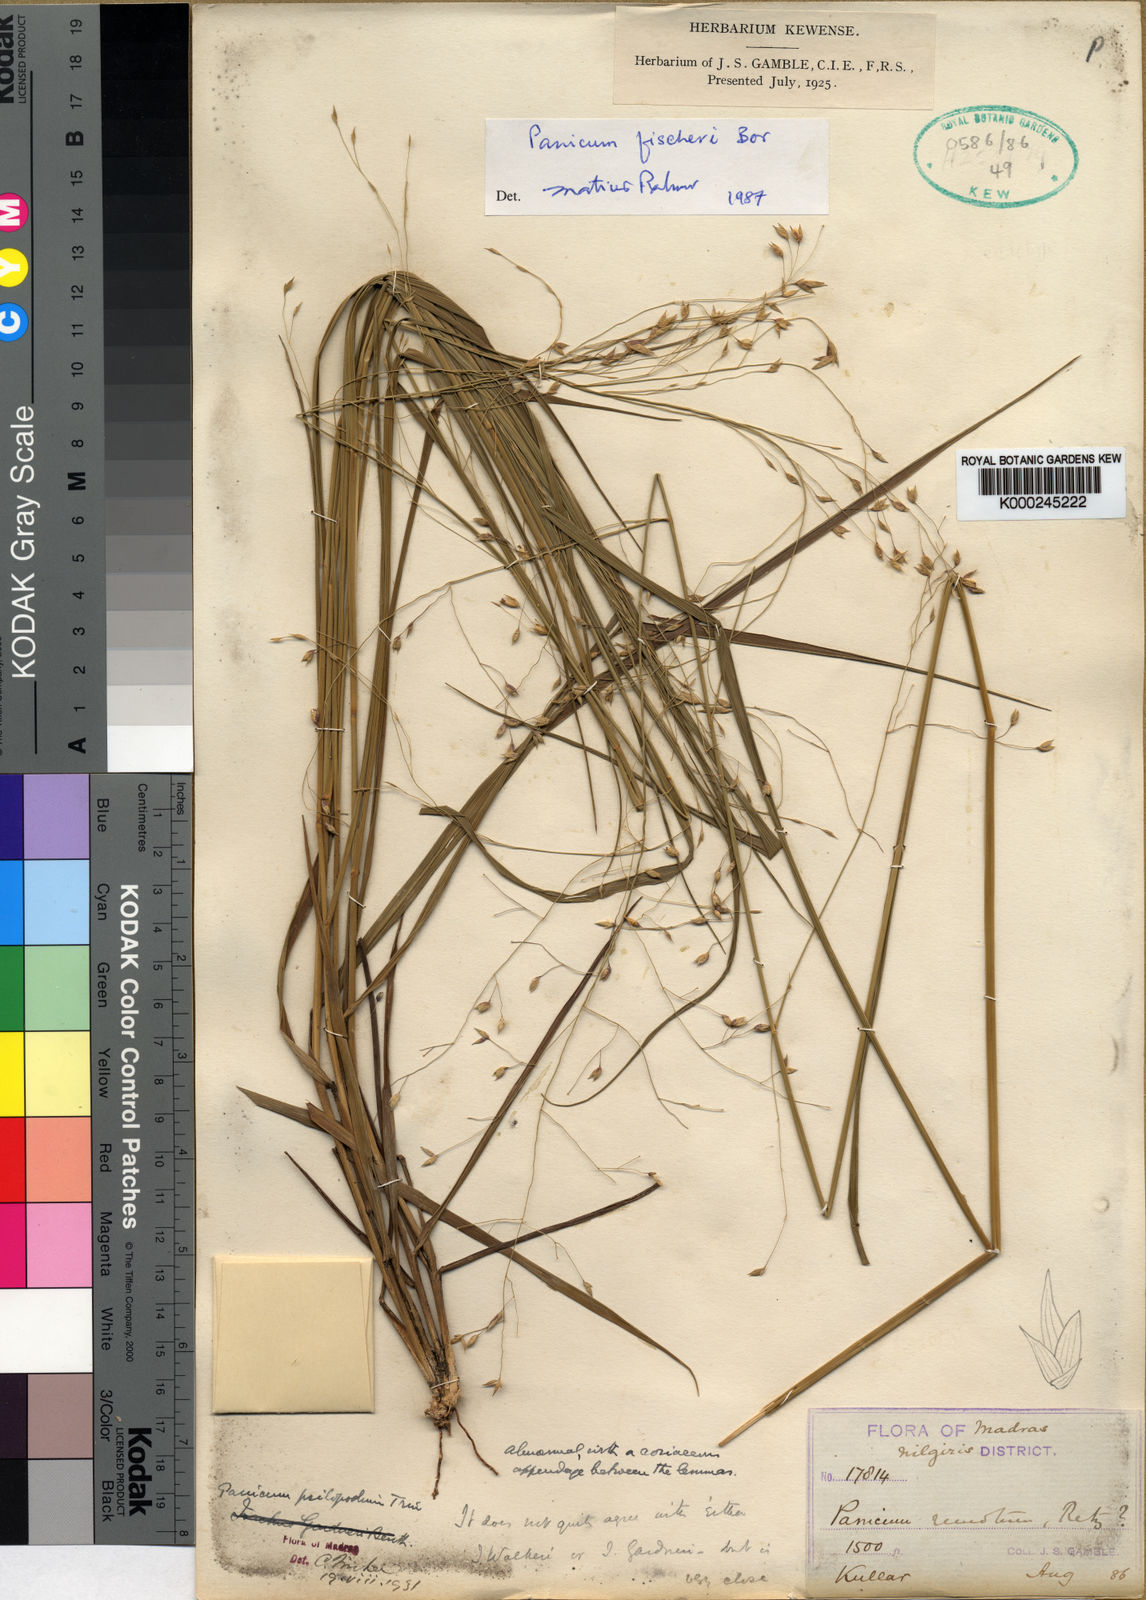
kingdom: Plantae
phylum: Tracheophyta
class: Liliopsida
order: Poales
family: Poaceae
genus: Panicum
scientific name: Panicum fischeri
